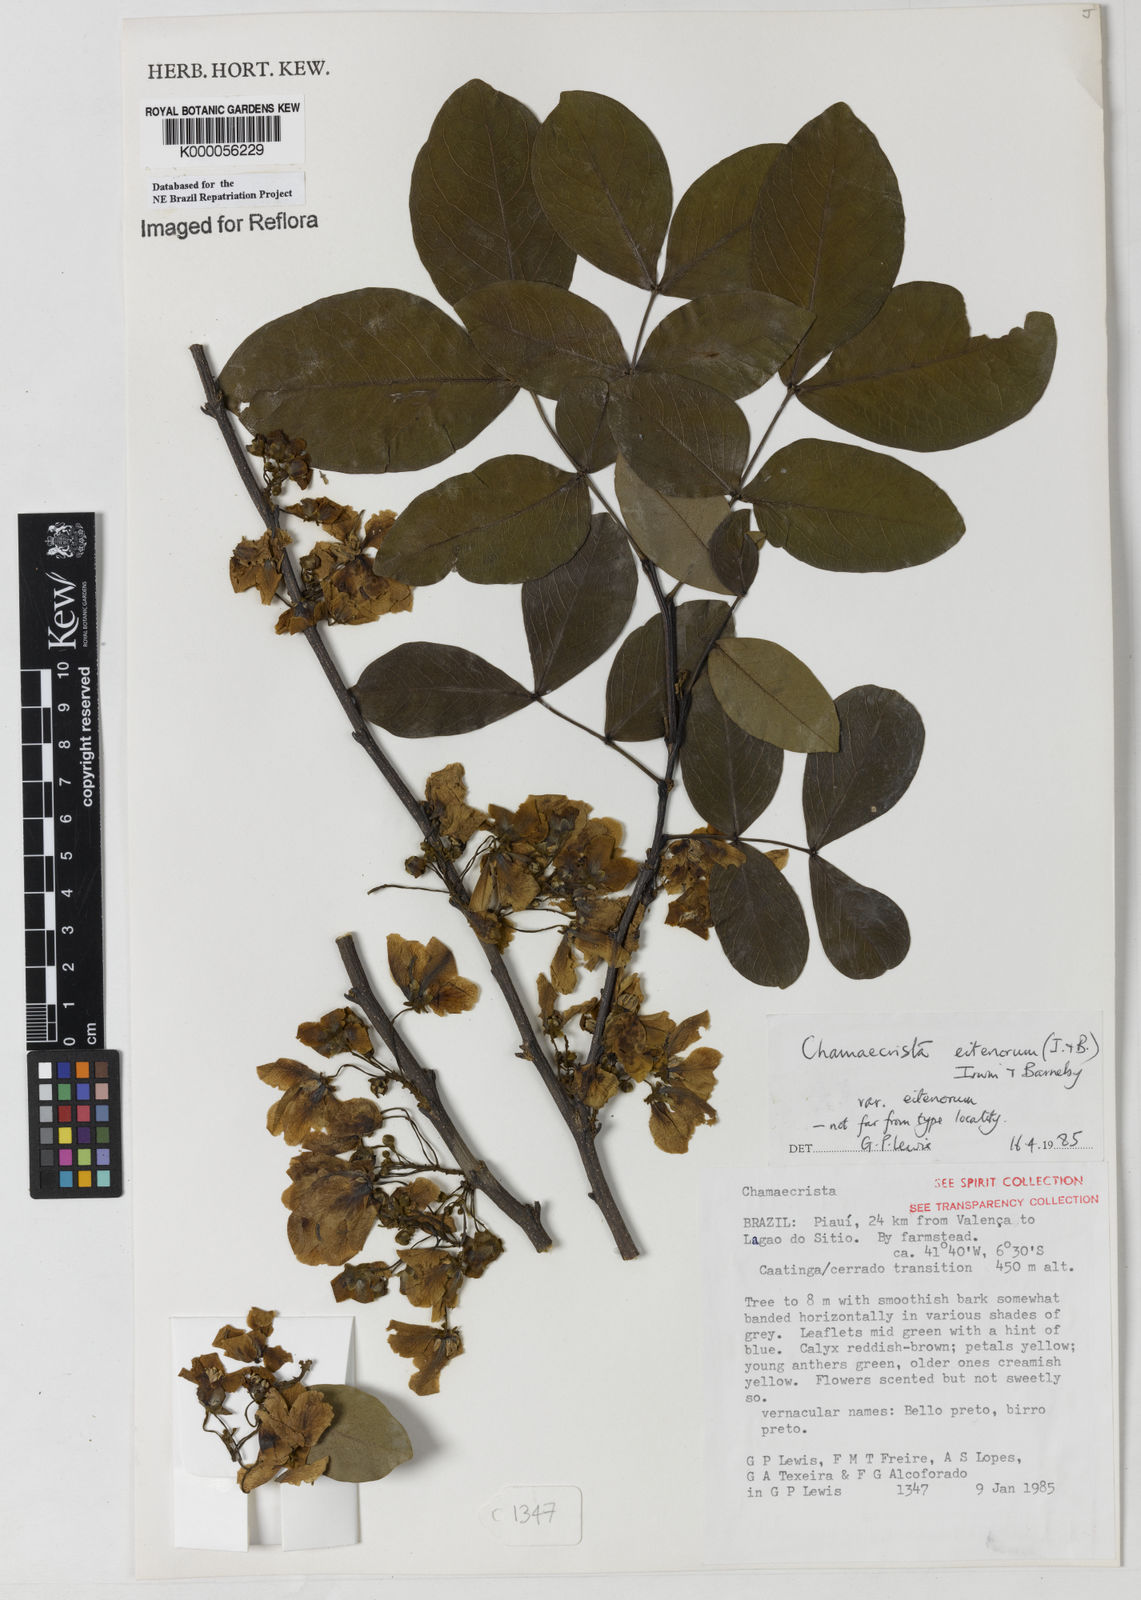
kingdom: Plantae
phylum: Tracheophyta
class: Magnoliopsida
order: Fabales
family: Fabaceae
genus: Chamaecrista
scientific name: Chamaecrista eitenorum
